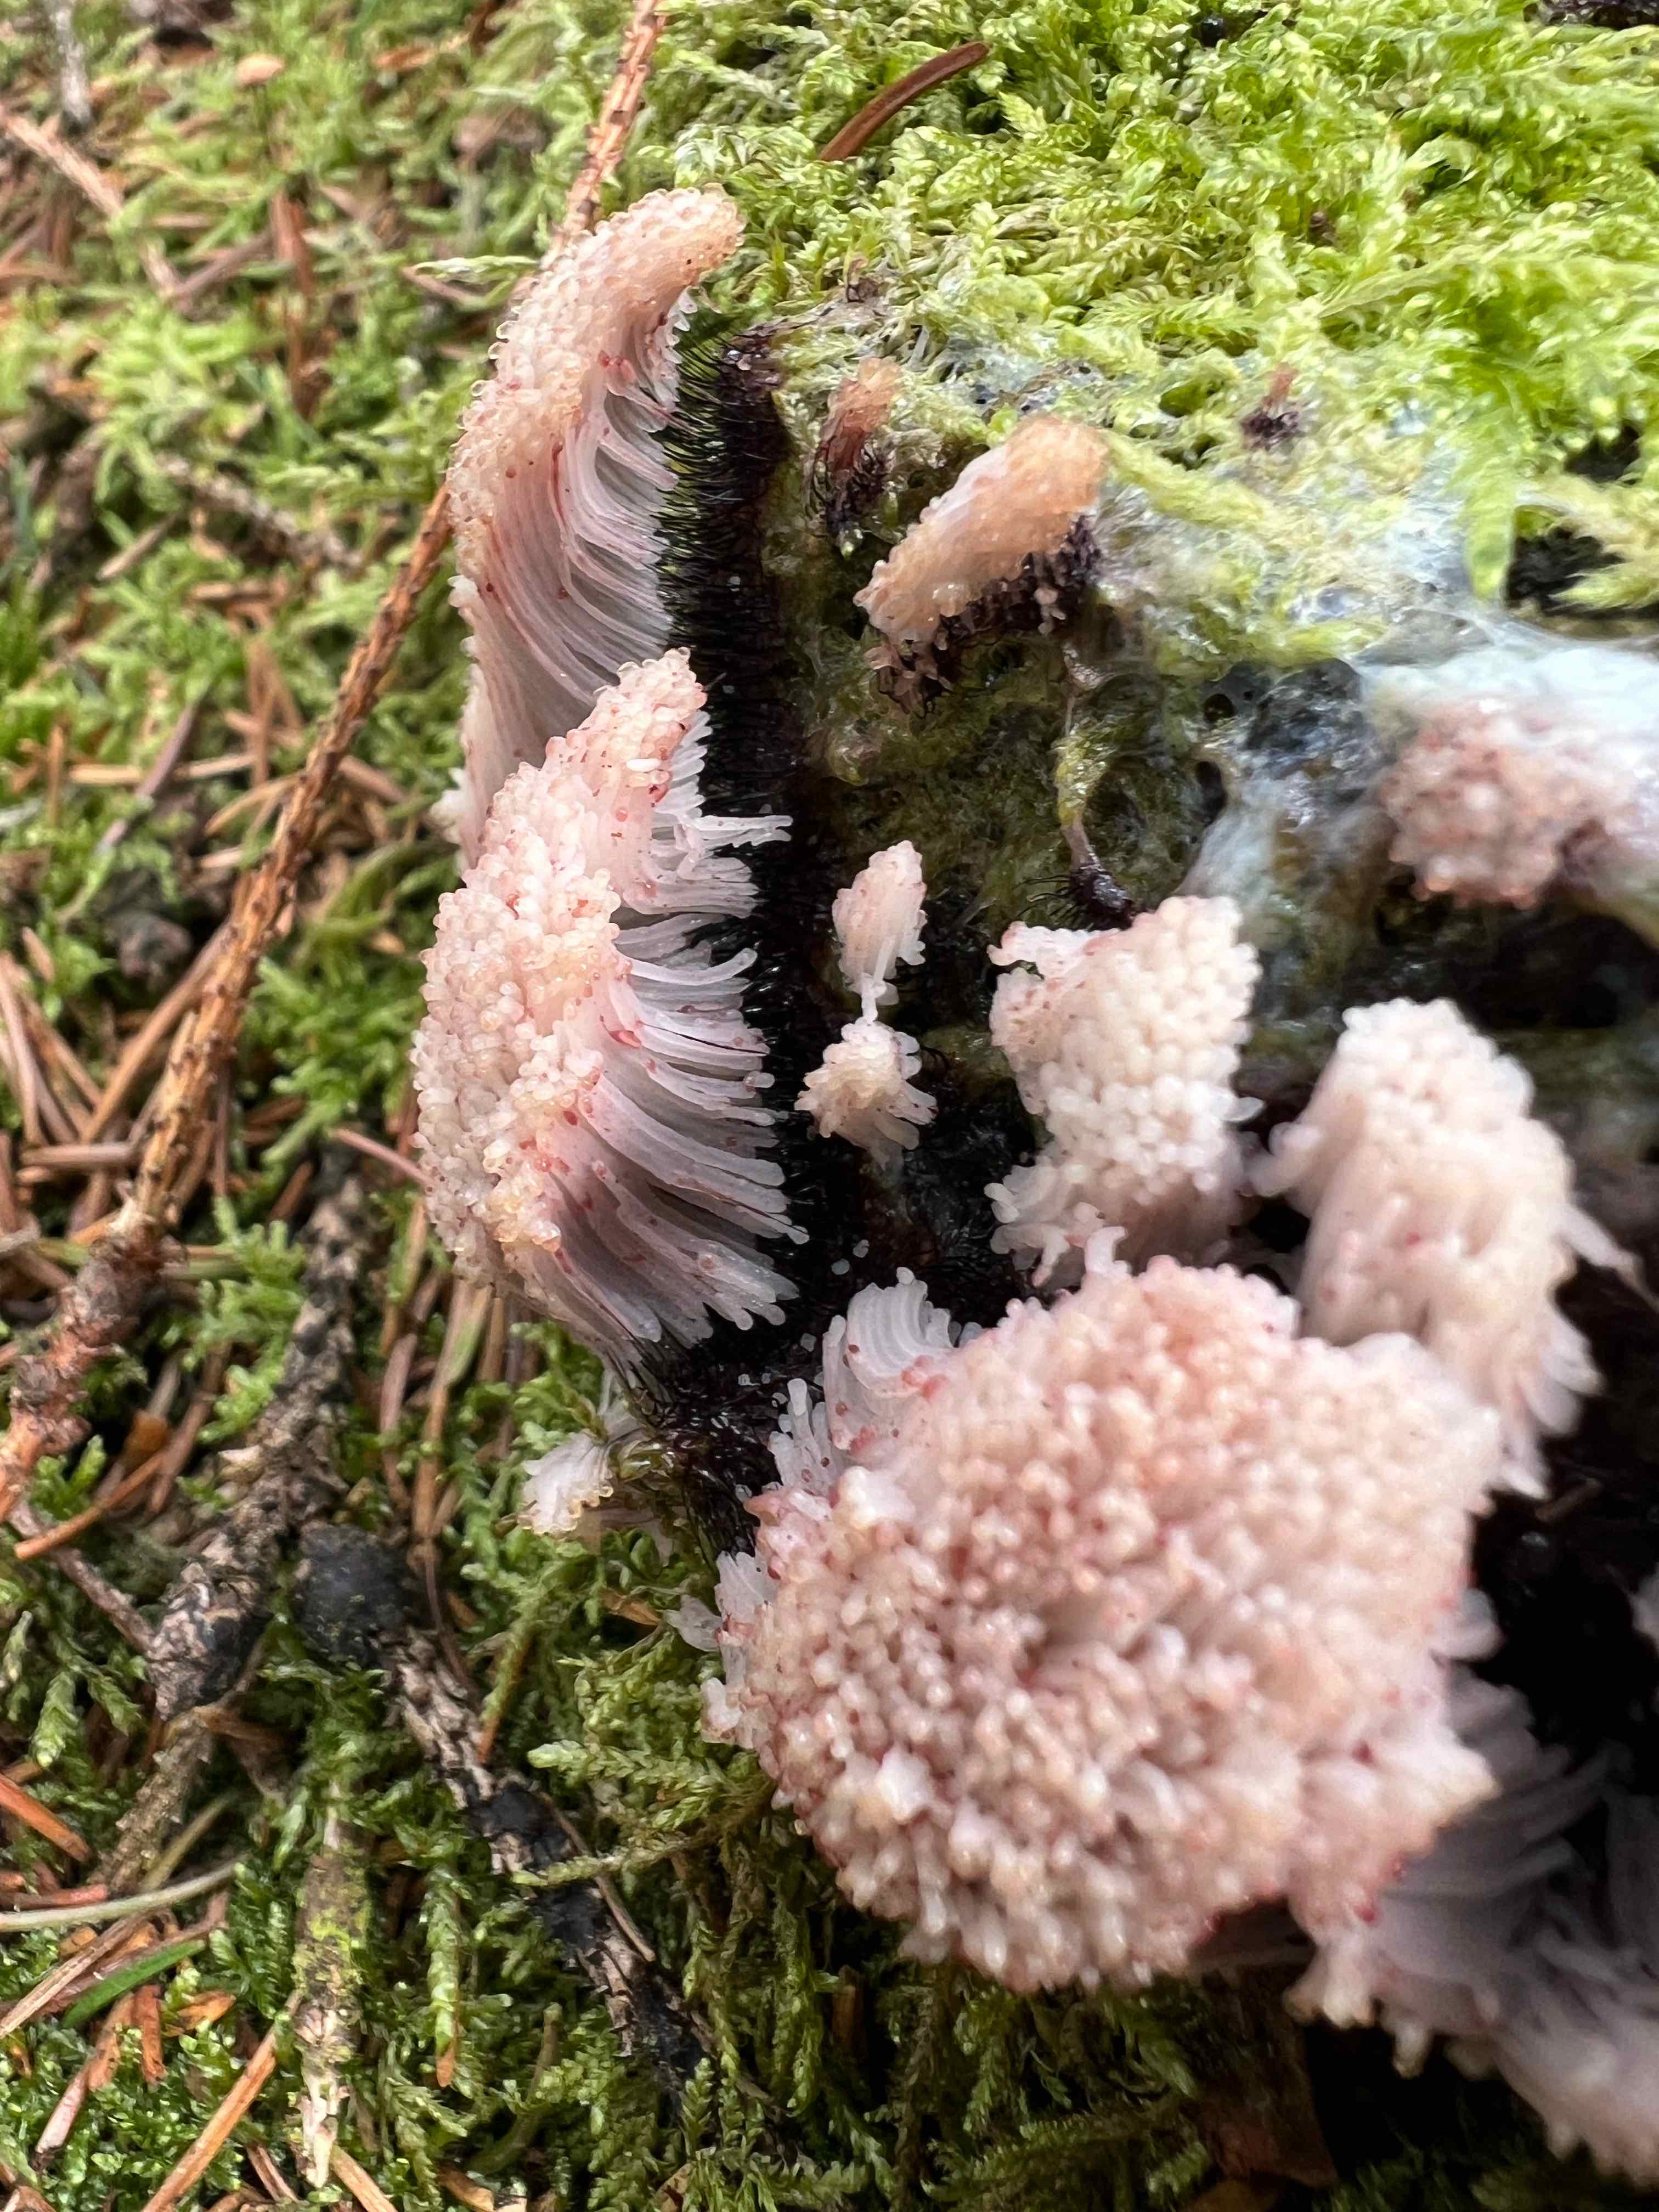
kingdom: Protozoa
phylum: Mycetozoa
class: Myxomycetes
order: Stemonitidales
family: Stemonitidaceae
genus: Stemonitis
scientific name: Stemonitis
